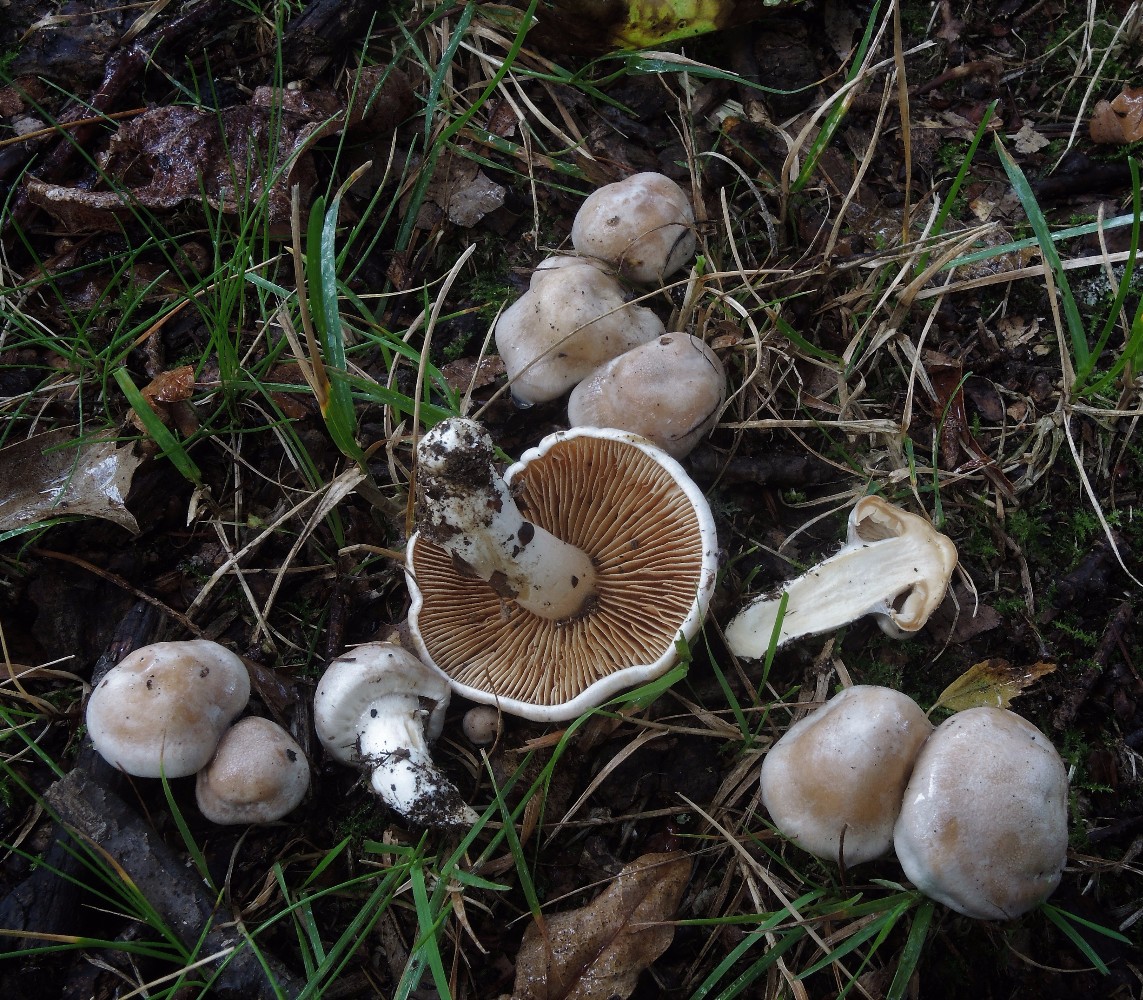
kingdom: Fungi
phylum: Basidiomycota
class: Agaricomycetes
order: Agaricales
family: Cortinariaceae
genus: Thaxterogaster
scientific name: Thaxterogaster leucoluteolus
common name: isabella slørhat
